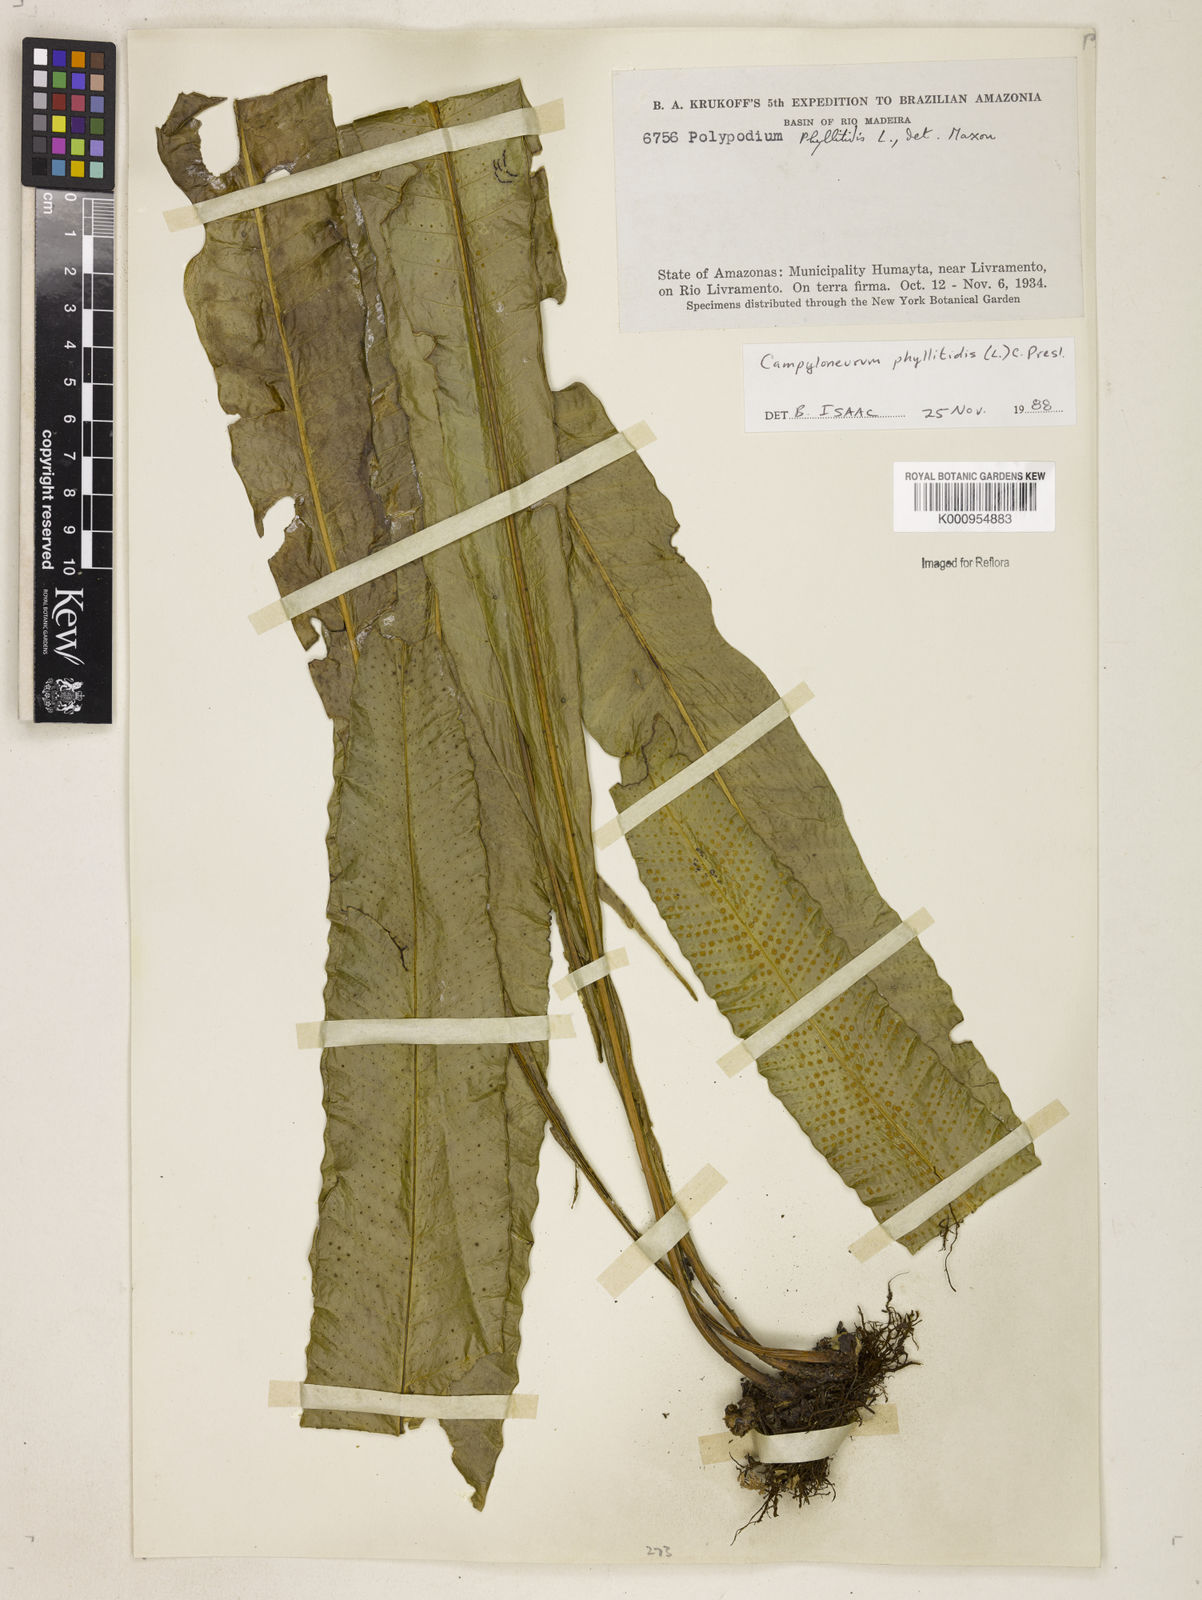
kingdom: Plantae
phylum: Tracheophyta
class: Polypodiopsida
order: Polypodiales
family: Polypodiaceae
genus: Campyloneurum
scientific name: Campyloneurum phyllitidis
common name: Cow-tongue fern
